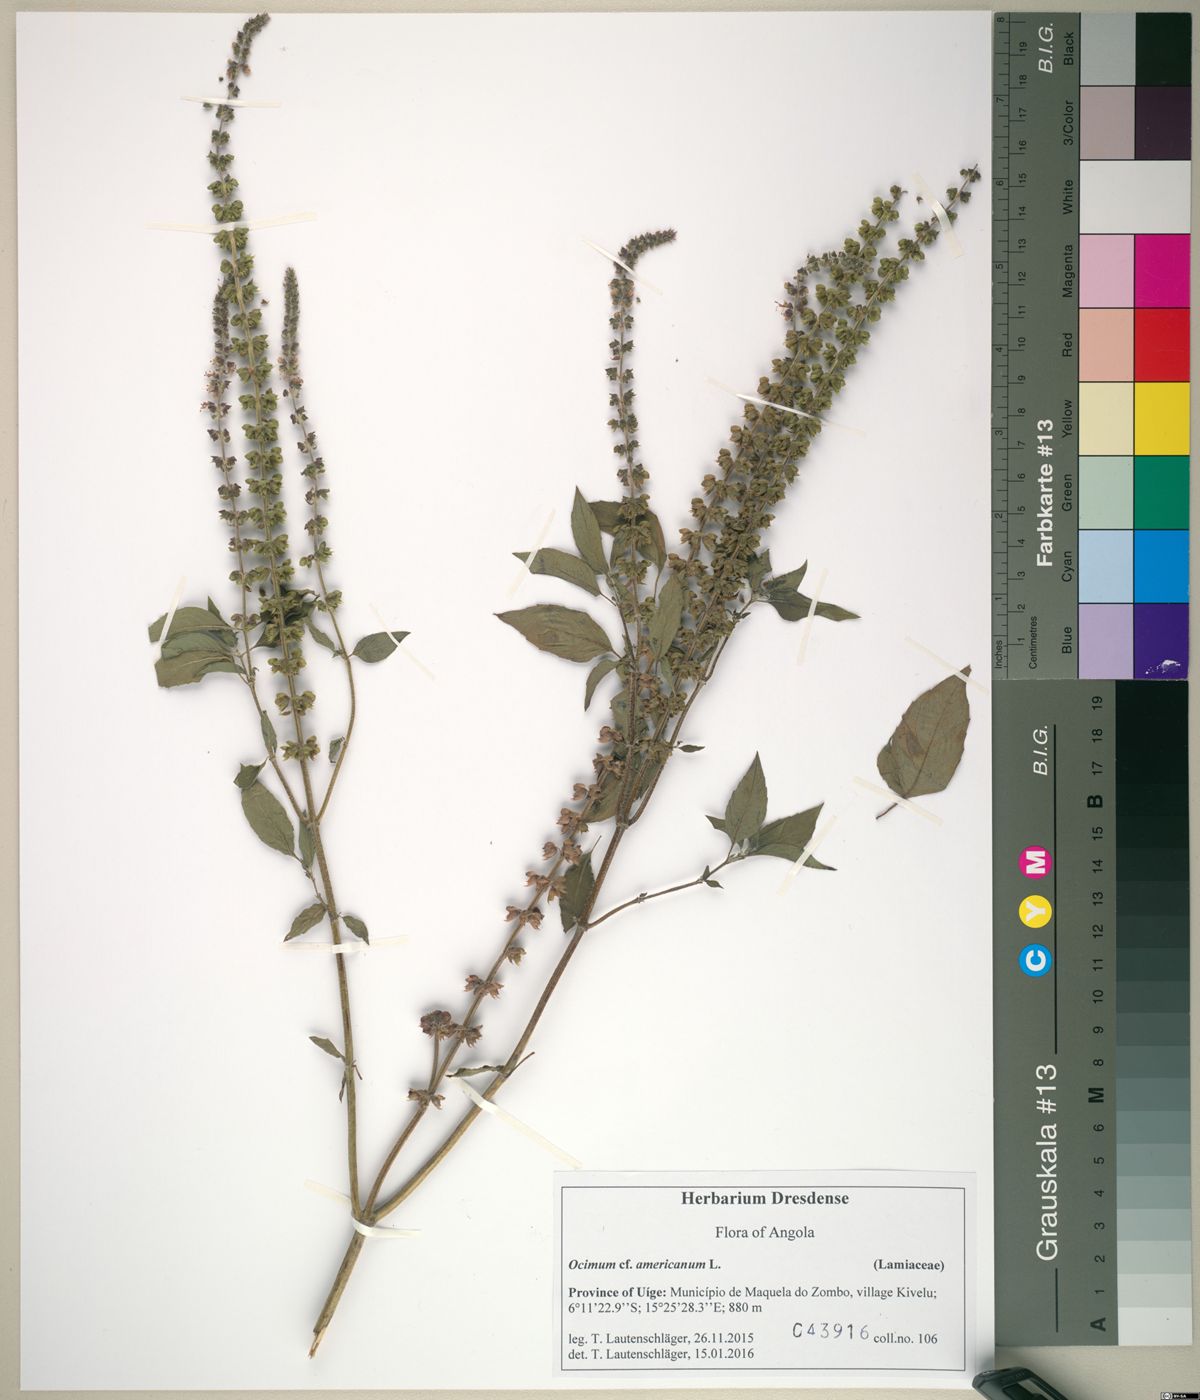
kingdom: Plantae
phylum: Tracheophyta
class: Magnoliopsida
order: Lamiales
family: Lamiaceae
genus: Ocimum
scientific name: Ocimum americanum
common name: American basil
